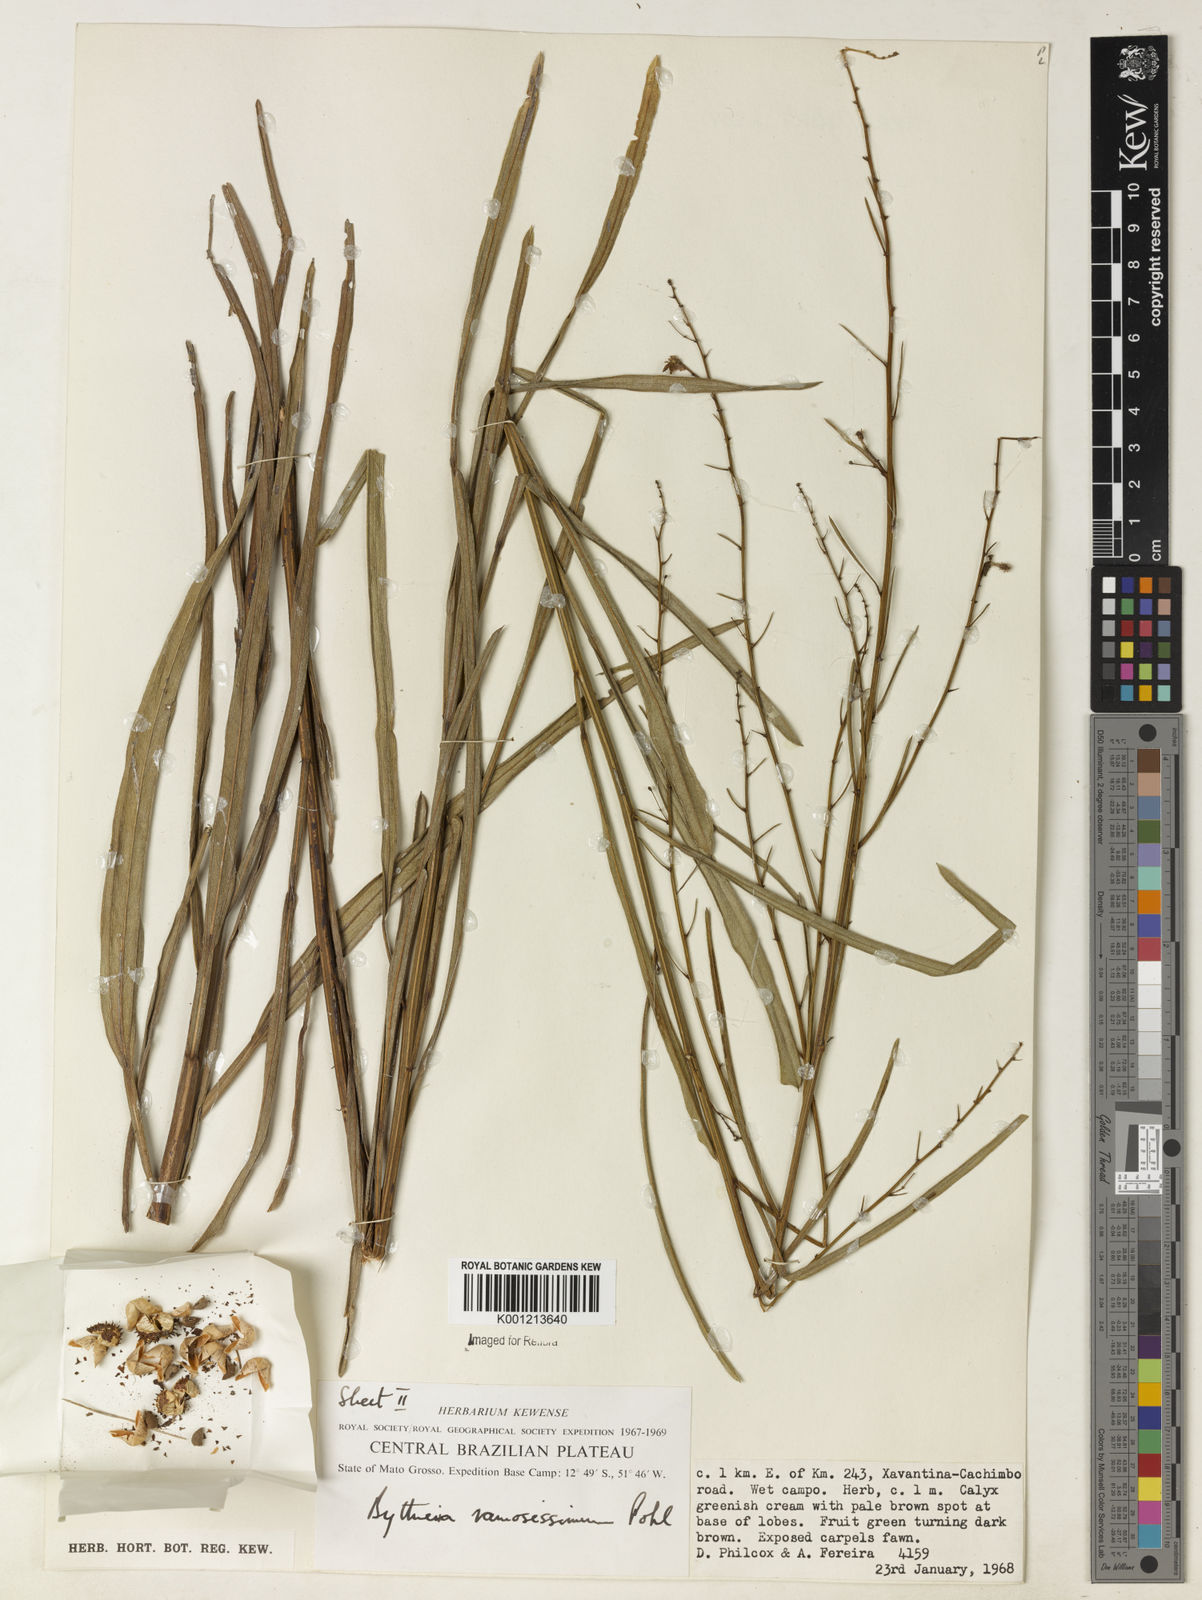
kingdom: Plantae
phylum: Tracheophyta
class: Magnoliopsida
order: Malvales
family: Malvaceae
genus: Byttneria
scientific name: Byttneria ramosissima
